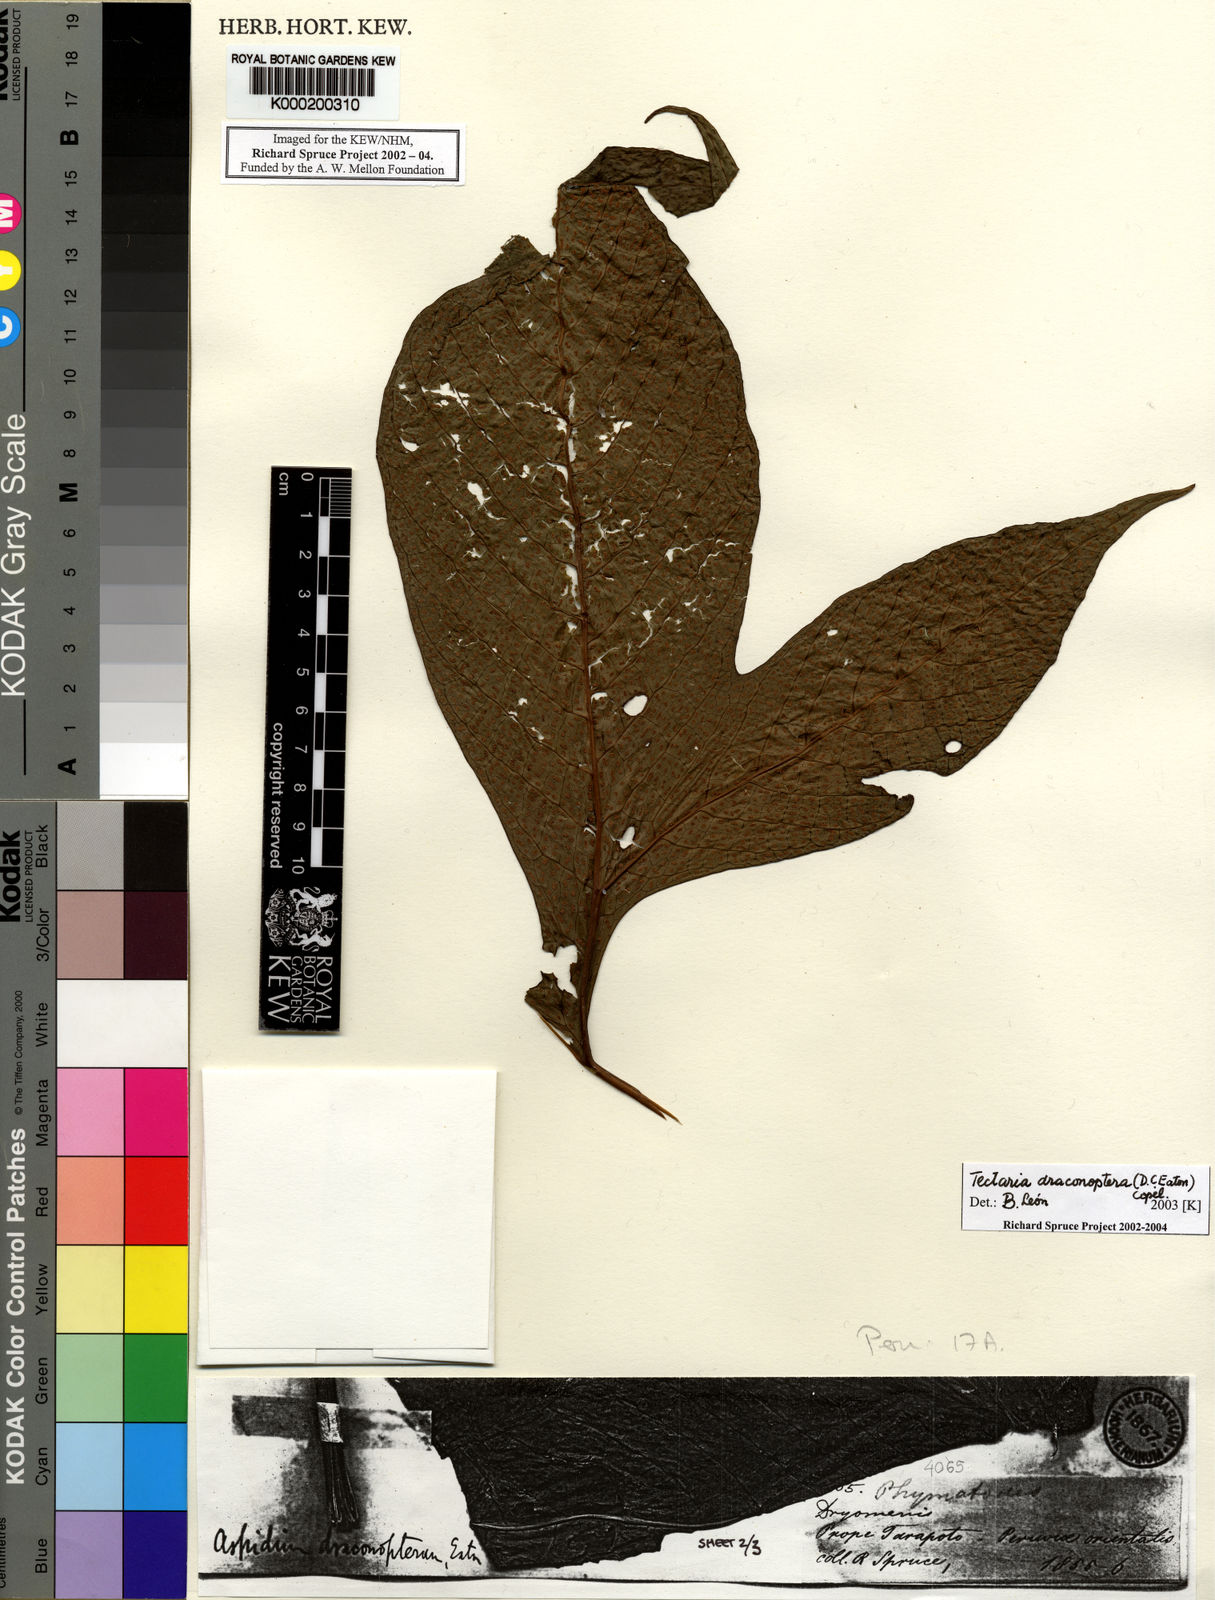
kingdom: Plantae
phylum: Tracheophyta
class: Polypodiopsida
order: Polypodiales
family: Tectariaceae
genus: Draconopteris
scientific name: Draconopteris draconoptera
